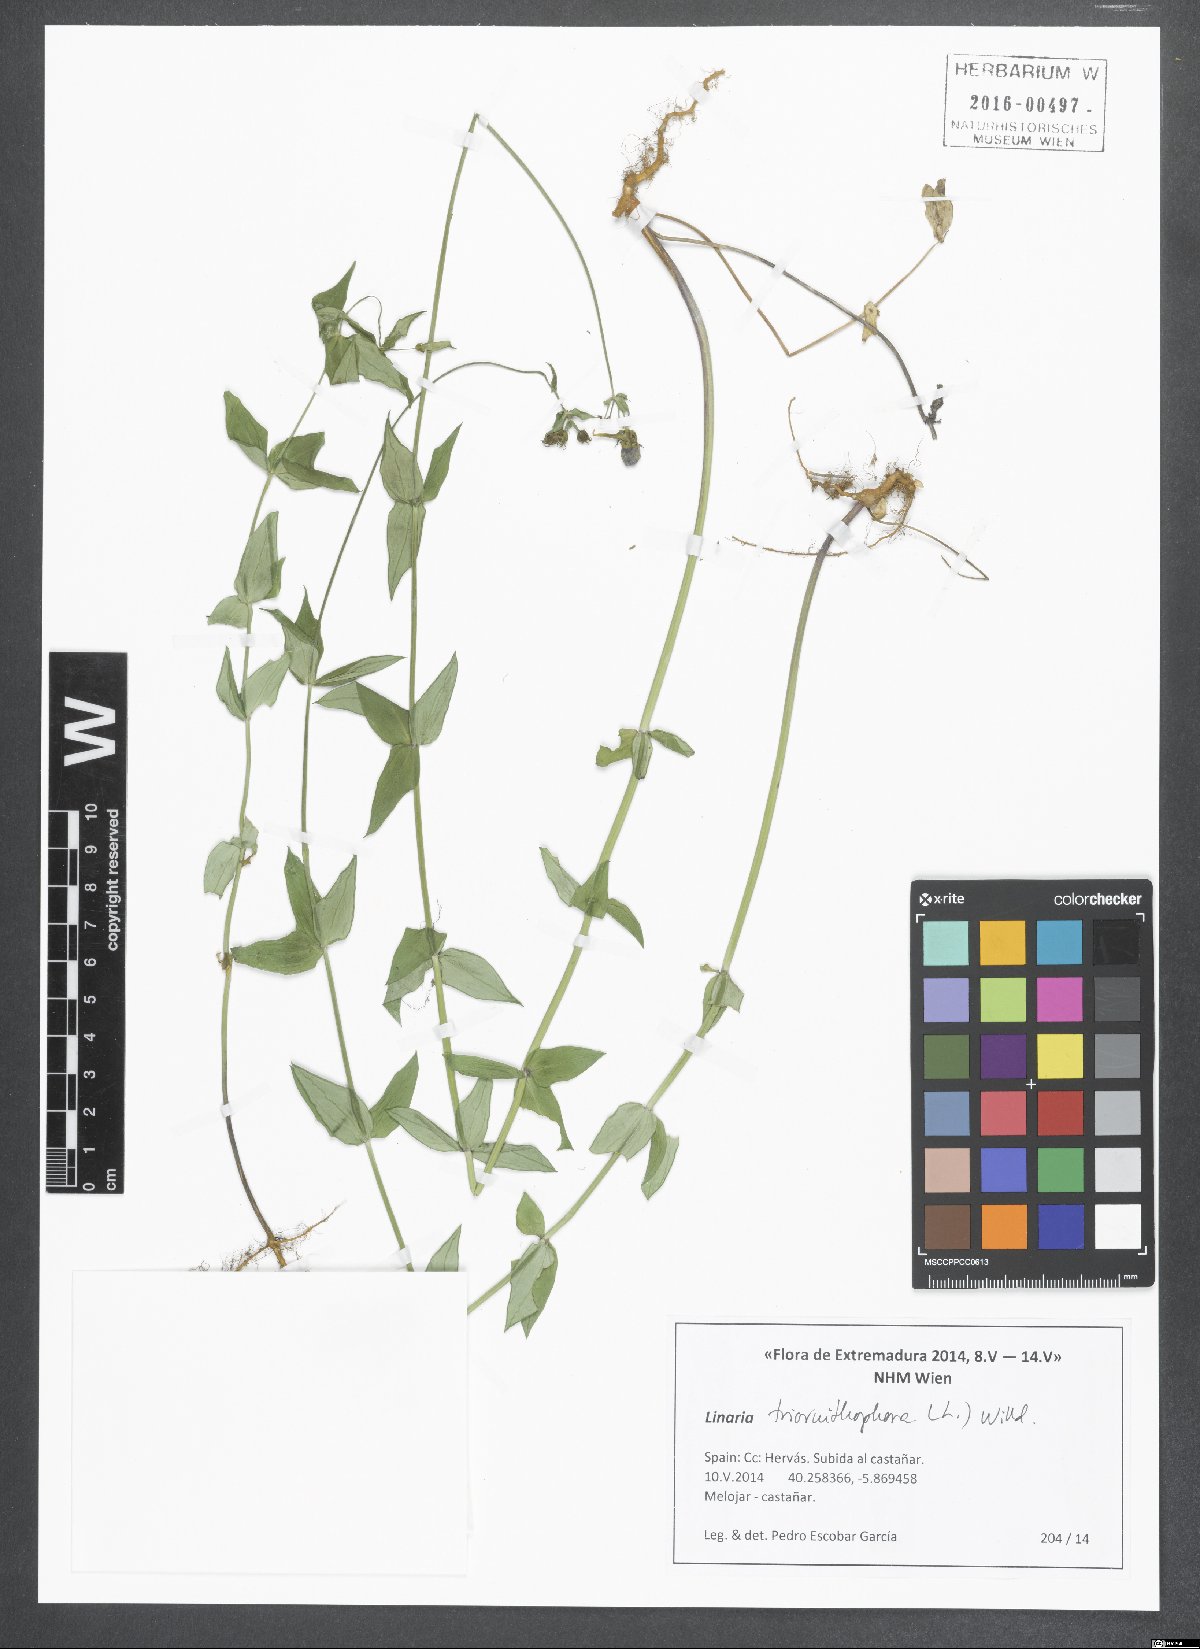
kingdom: Plantae
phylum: Tracheophyta
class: Magnoliopsida
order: Lamiales
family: Plantaginaceae
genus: Linaria
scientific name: Linaria triornithophora
